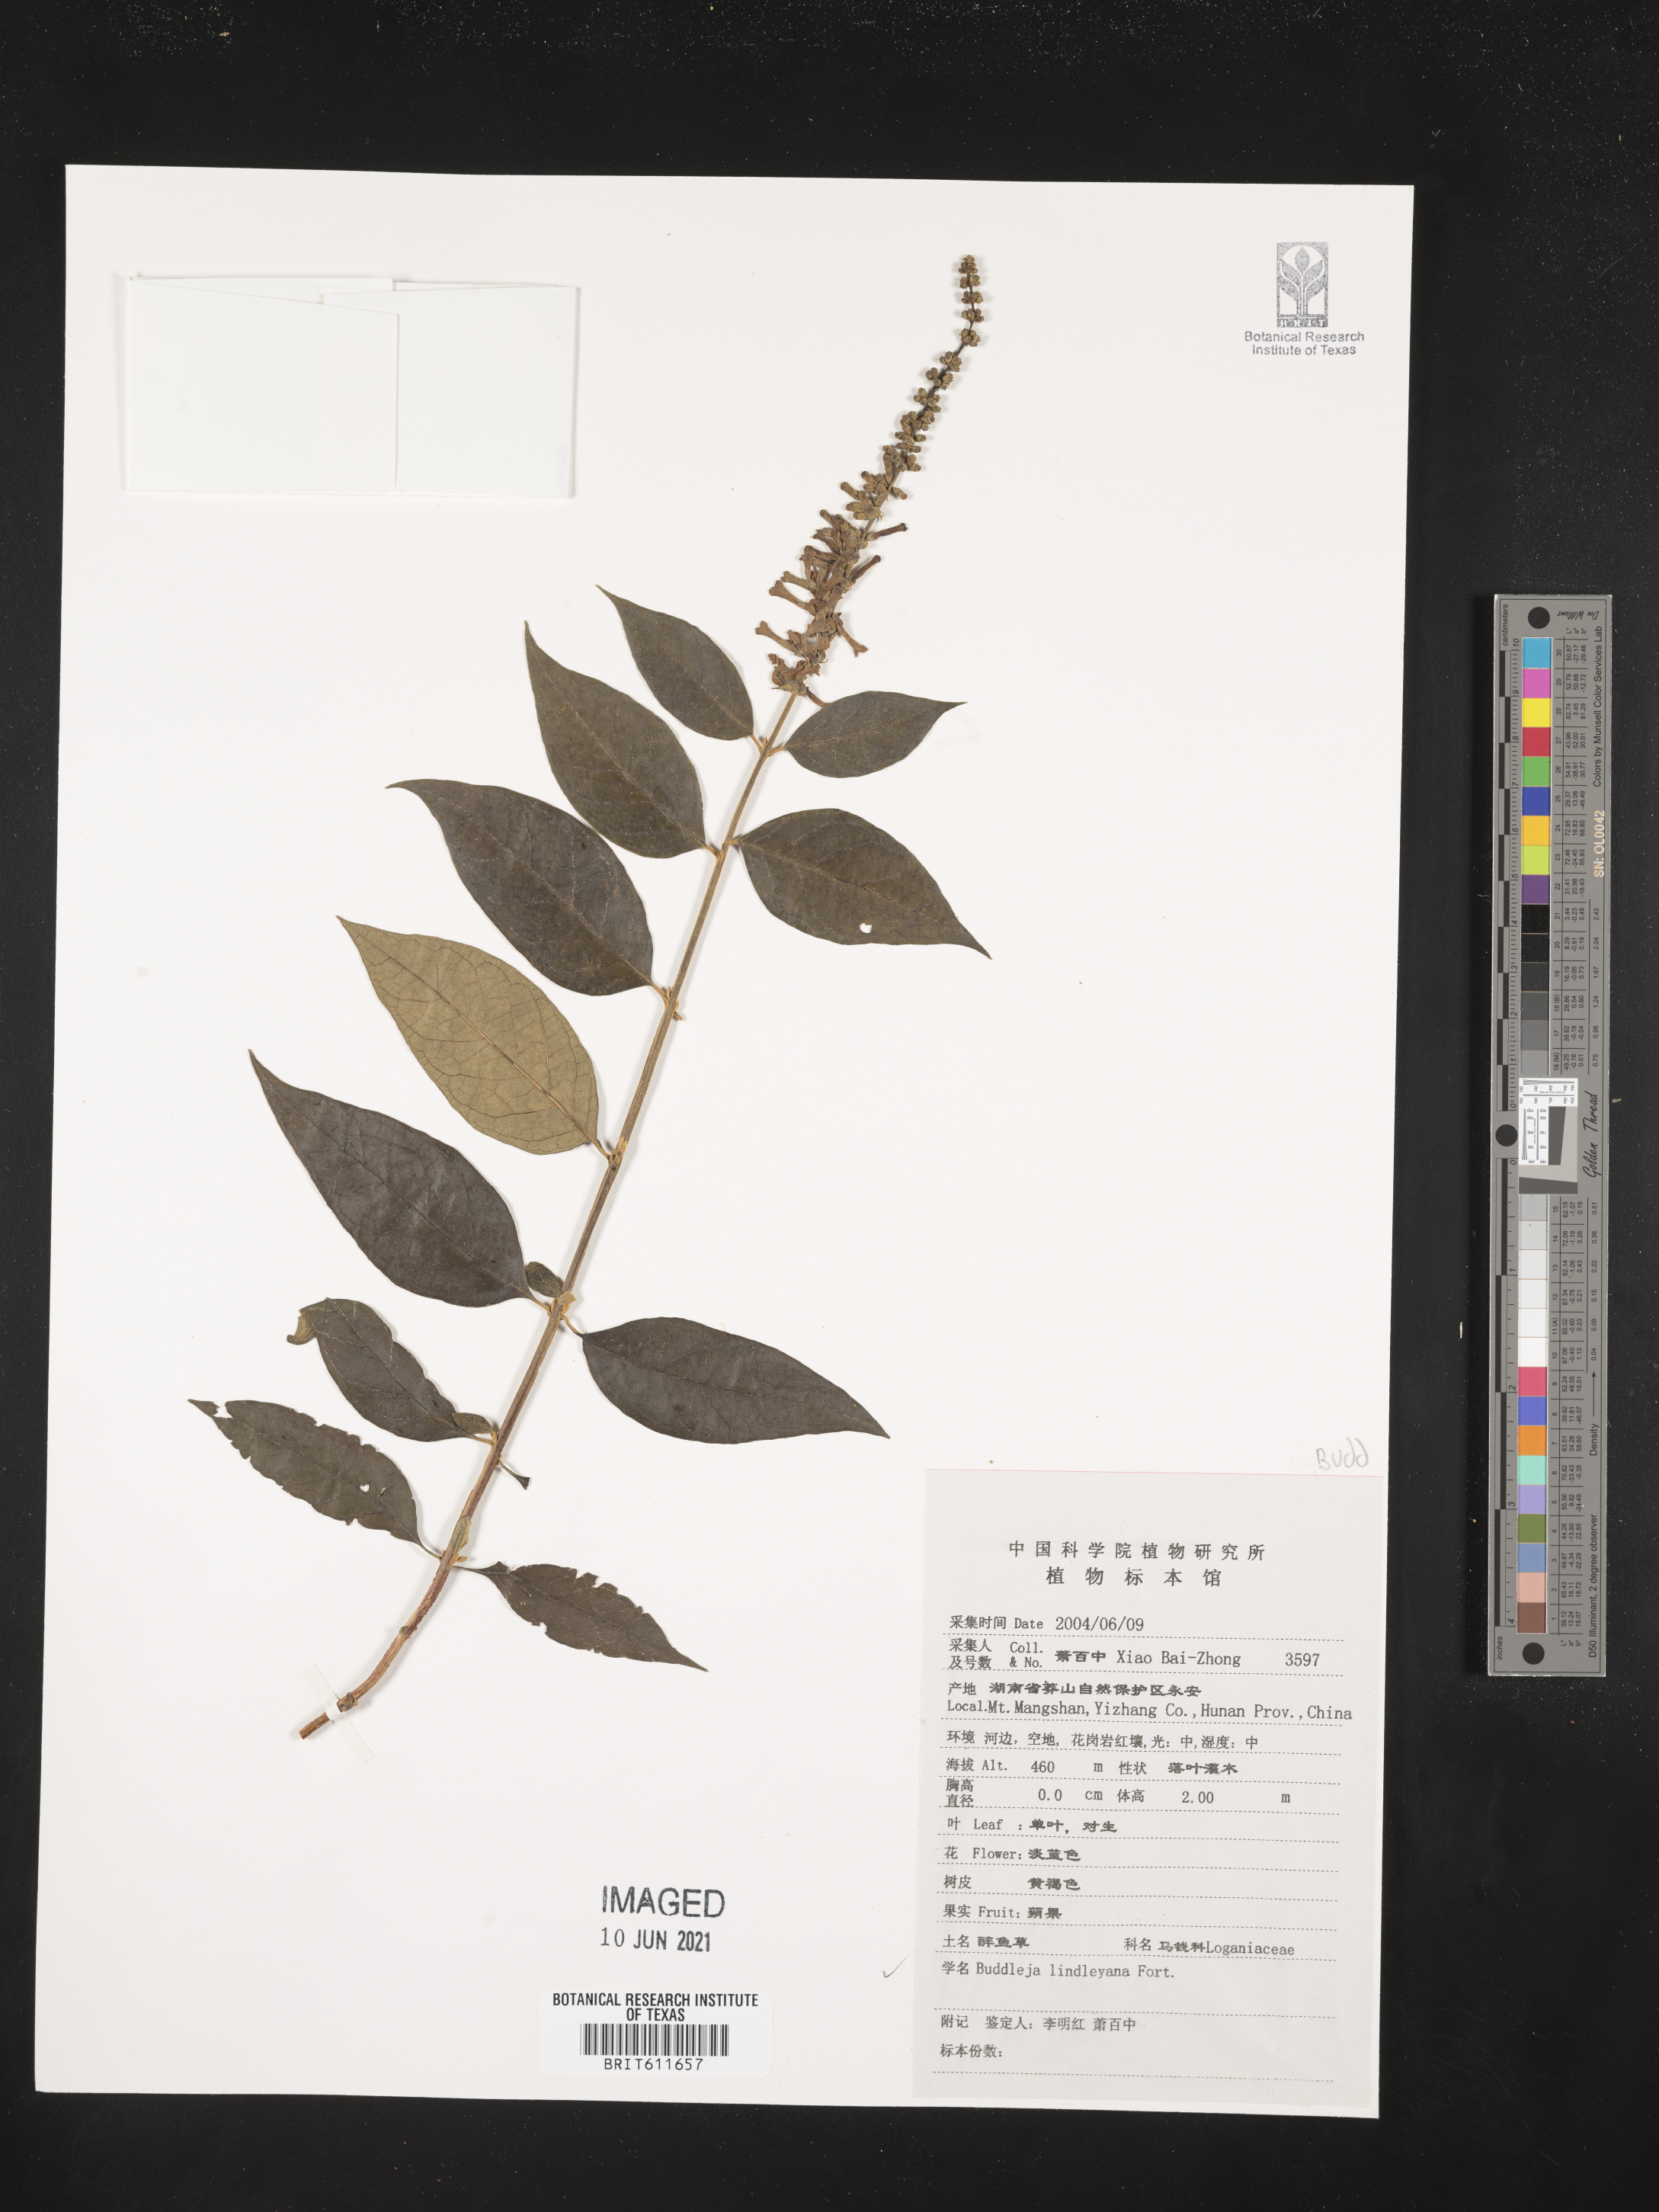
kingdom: Plantae
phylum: Tracheophyta
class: Magnoliopsida
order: Lamiales
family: Scrophulariaceae
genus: Buddleja
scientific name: Buddleja lindleyana
